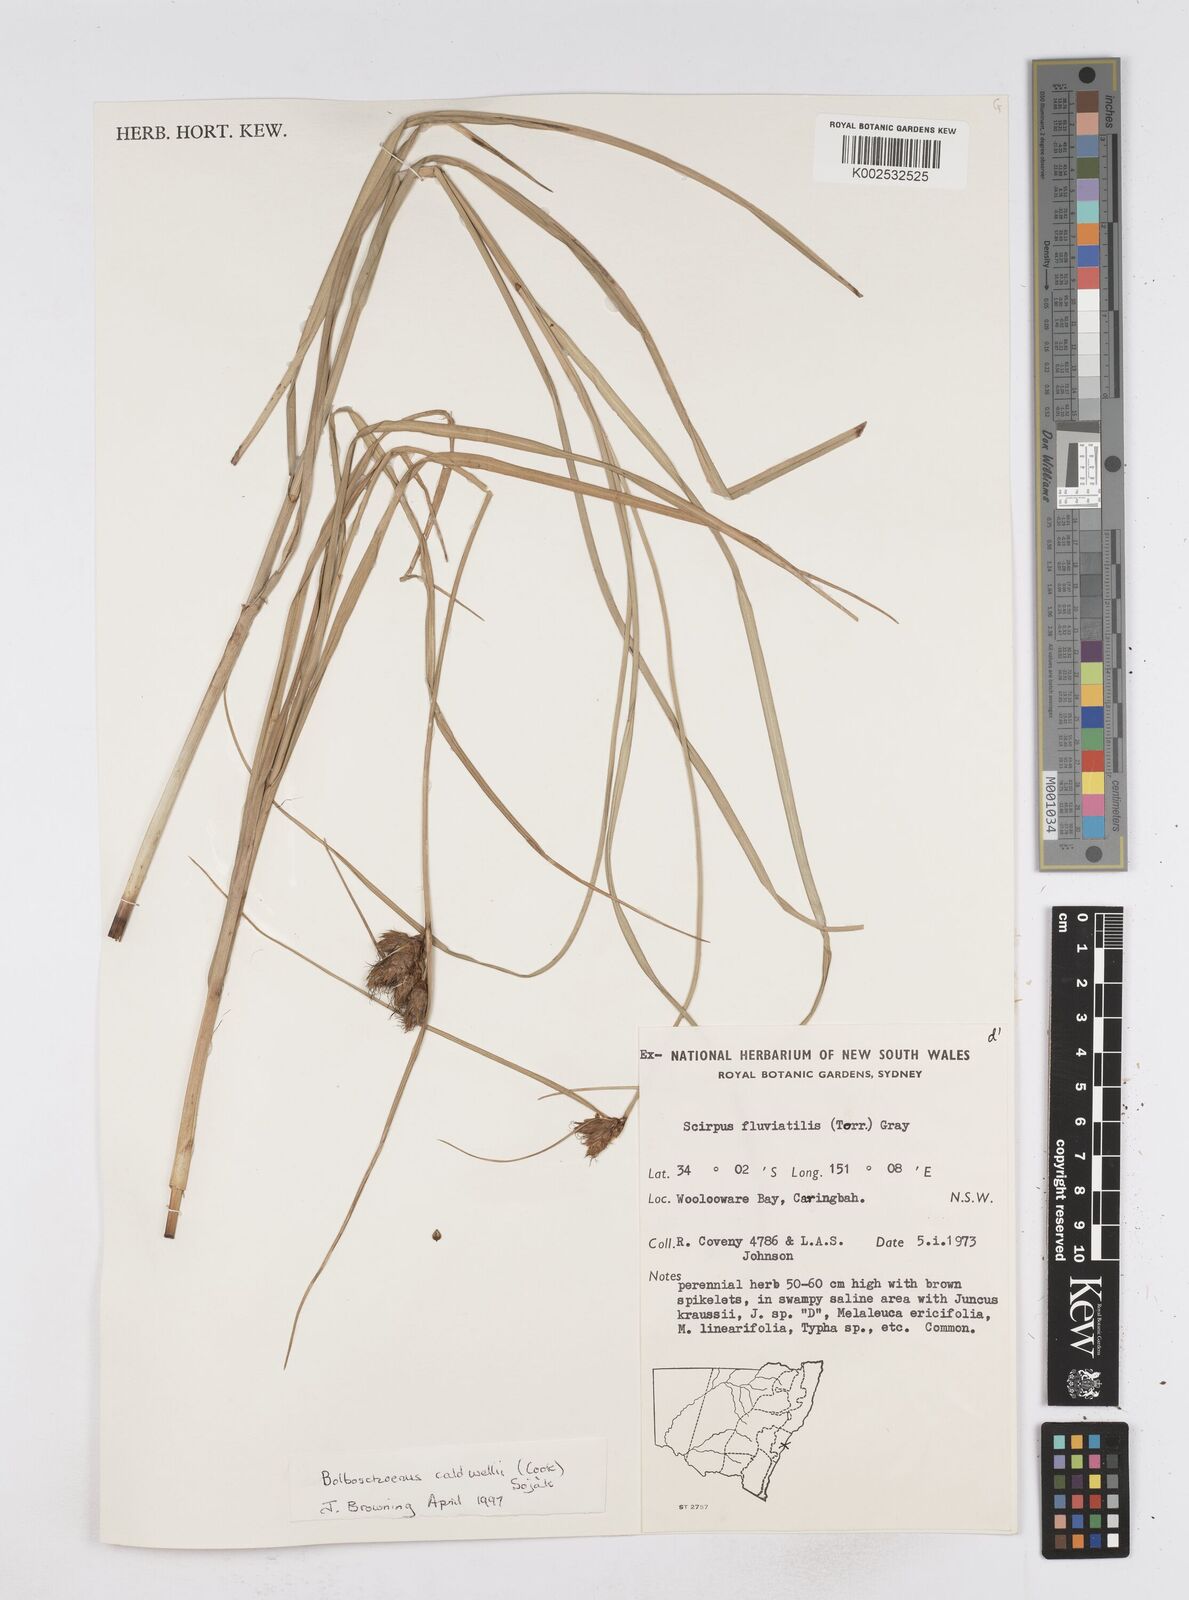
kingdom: Plantae
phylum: Tracheophyta
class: Liliopsida
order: Poales
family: Cyperaceae
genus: Bolboschoenus
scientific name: Bolboschoenus maritimus
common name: Sea club-rush
